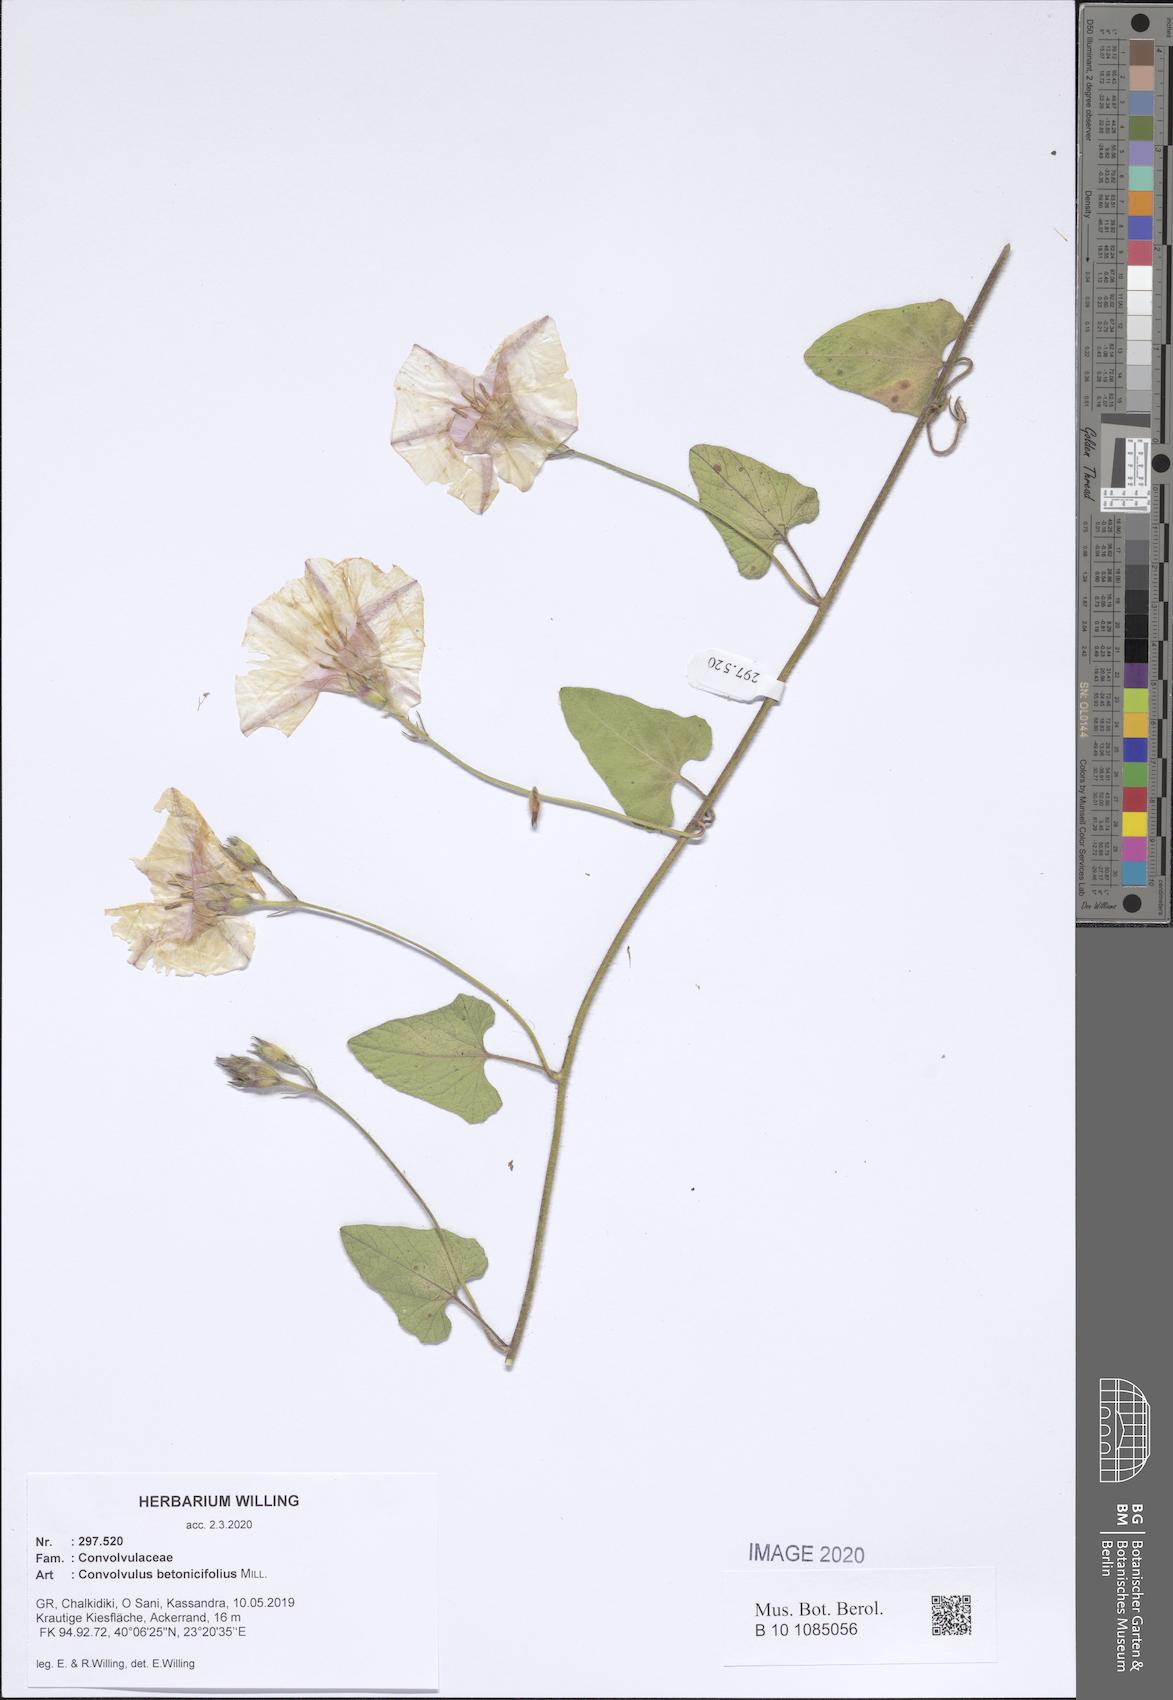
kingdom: Plantae
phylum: Tracheophyta
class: Magnoliopsida
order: Solanales
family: Convolvulaceae
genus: Convolvulus
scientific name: Convolvulus betonicifolius
